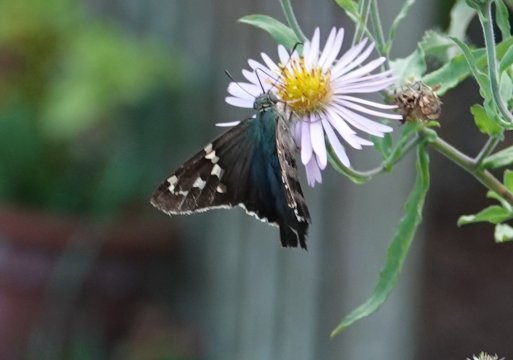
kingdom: Animalia
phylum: Arthropoda
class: Insecta
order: Lepidoptera
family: Hesperiidae
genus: Urbanus
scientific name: Urbanus proteus
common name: Long-tailed Skipper
